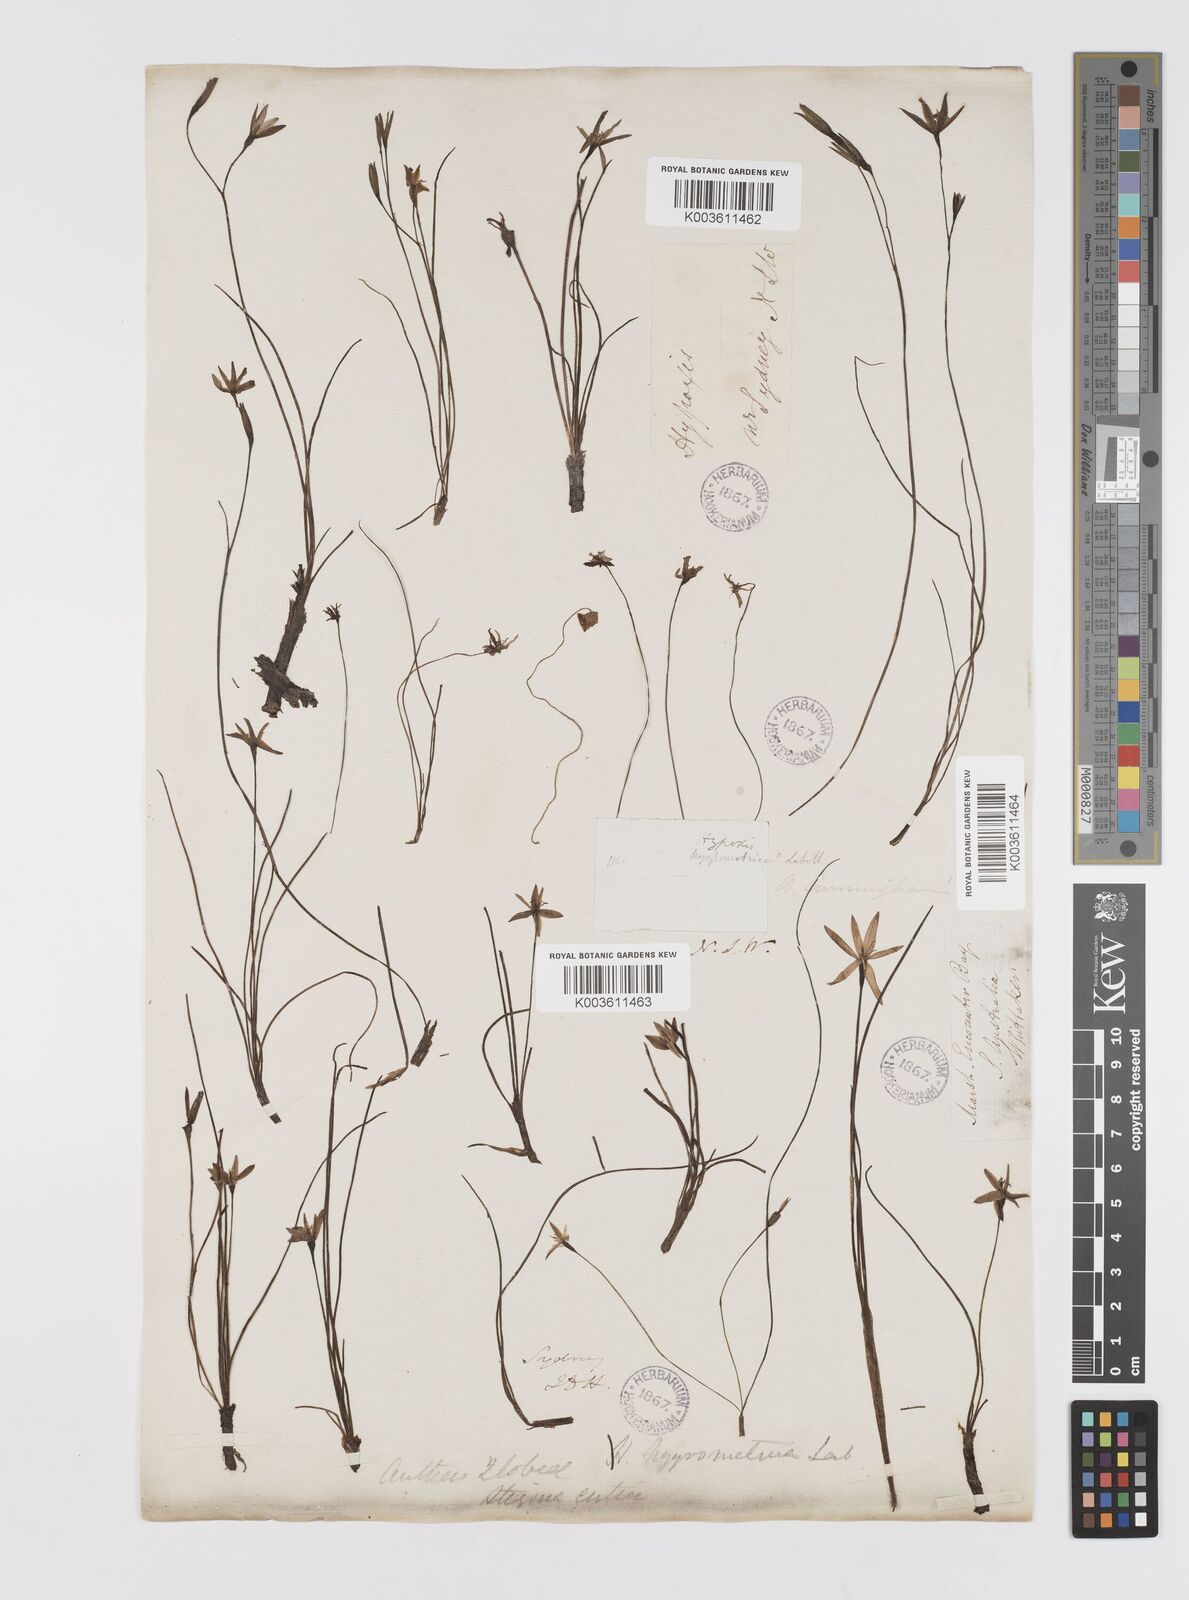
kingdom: Plantae
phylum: Tracheophyta
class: Liliopsida
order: Asparagales
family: Hypoxidaceae
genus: Hypoxis
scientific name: Hypoxis hygrometrica
